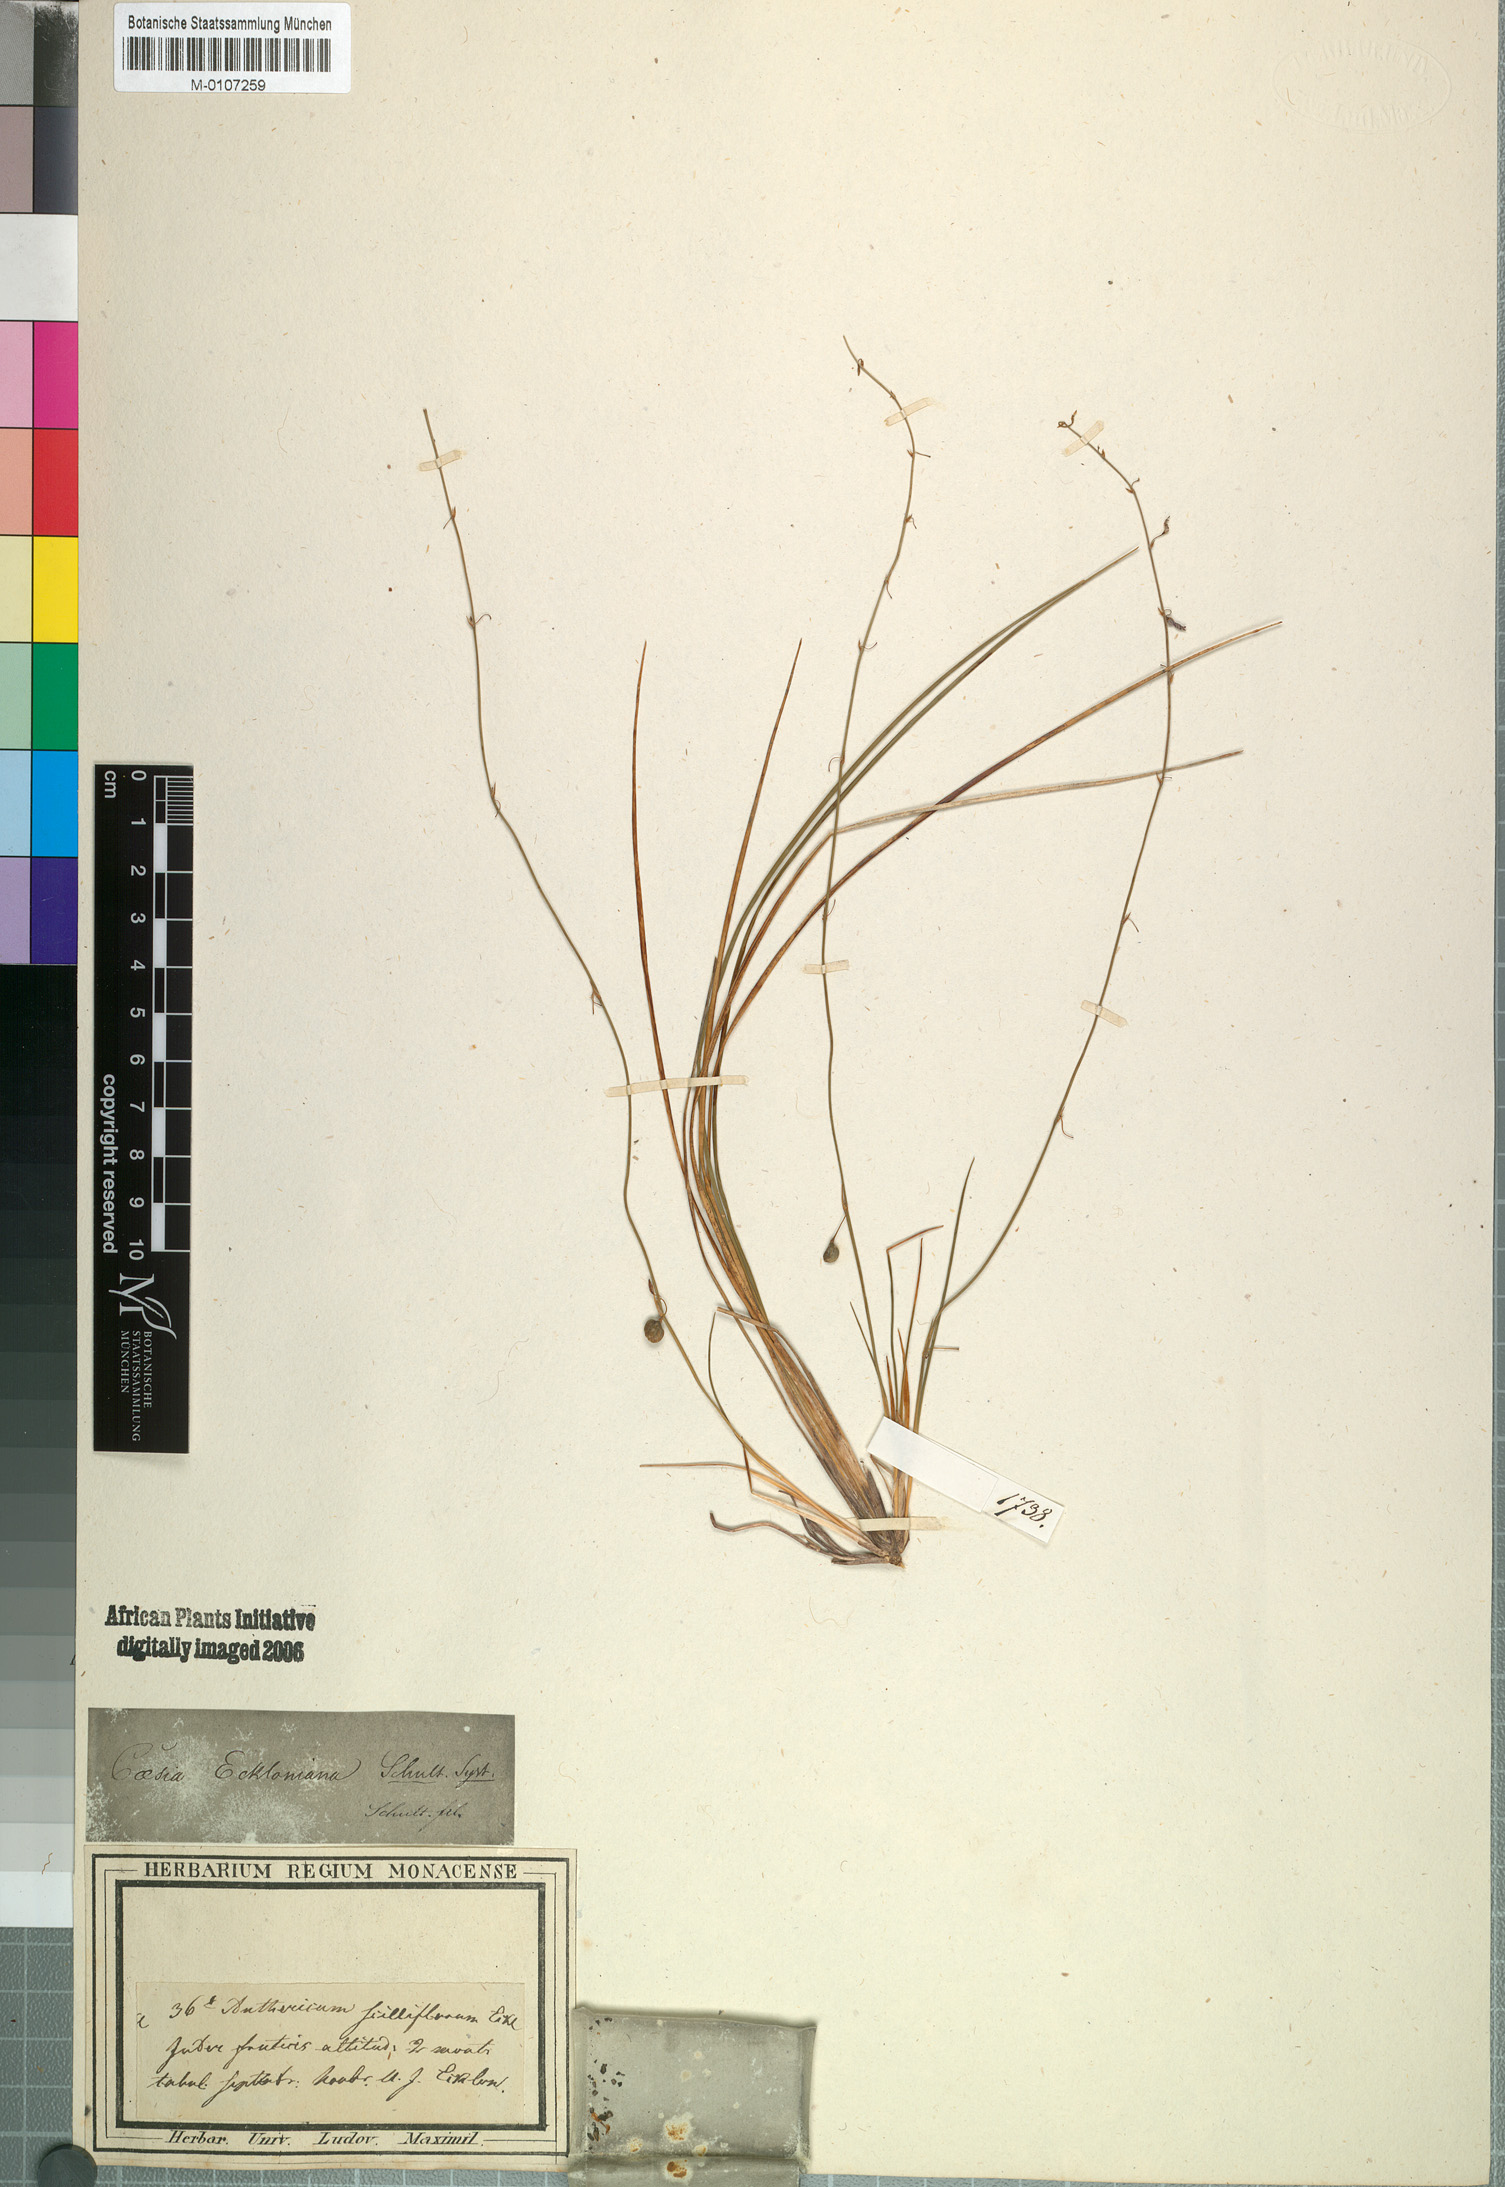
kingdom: Plantae
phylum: Tracheophyta
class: Liliopsida
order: Asparagales
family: Asparagaceae
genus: Anthericum
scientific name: Anthericum scilliflorum
